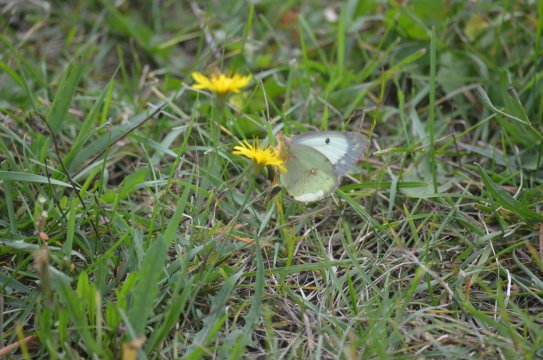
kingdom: Animalia
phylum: Arthropoda
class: Insecta
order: Lepidoptera
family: Pieridae
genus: Colias
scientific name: Colias philodice
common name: Clouded Sulphur
